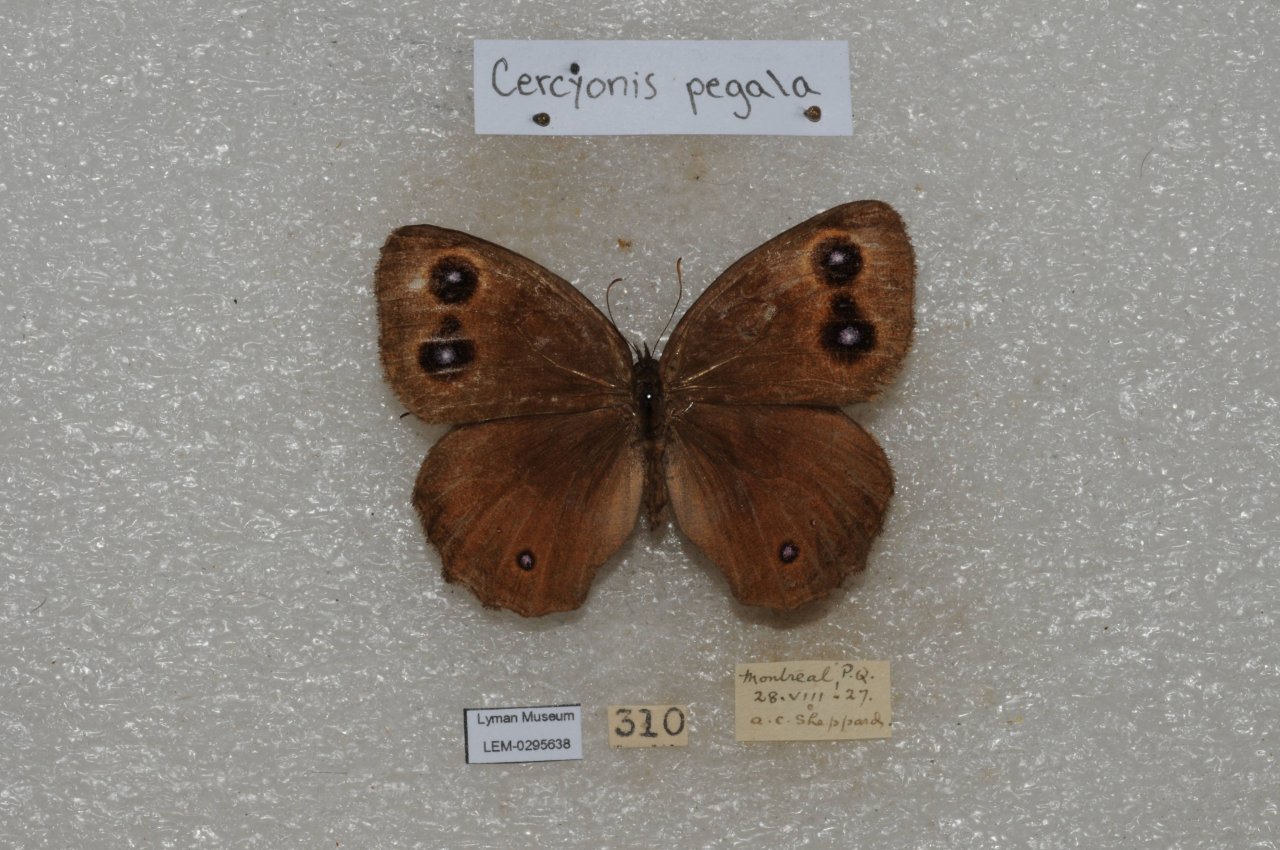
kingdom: Animalia
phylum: Arthropoda
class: Insecta
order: Lepidoptera
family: Nymphalidae
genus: Cercyonis
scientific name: Cercyonis pegala
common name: Common Wood-Nymph
